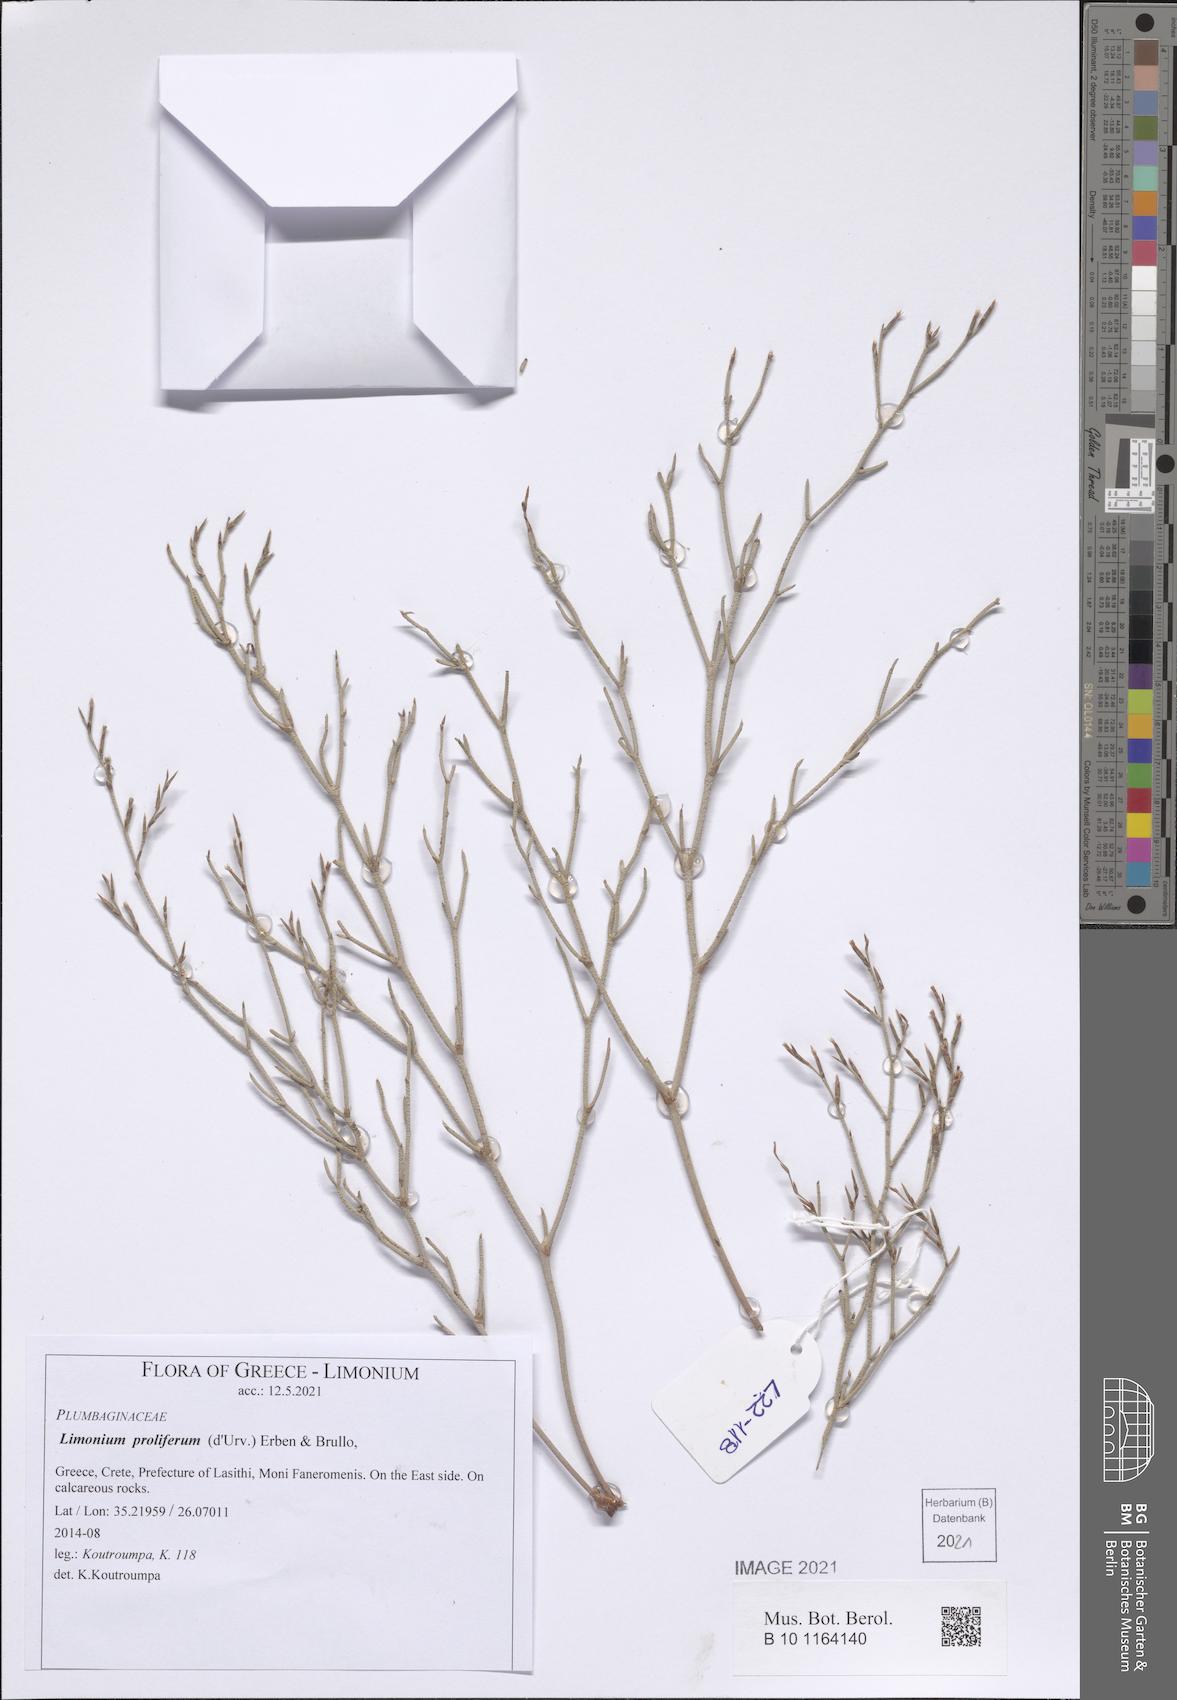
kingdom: Plantae
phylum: Tracheophyta
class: Magnoliopsida
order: Caryophyllales
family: Plumbaginaceae
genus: Limonium
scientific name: Limonium proliferum
